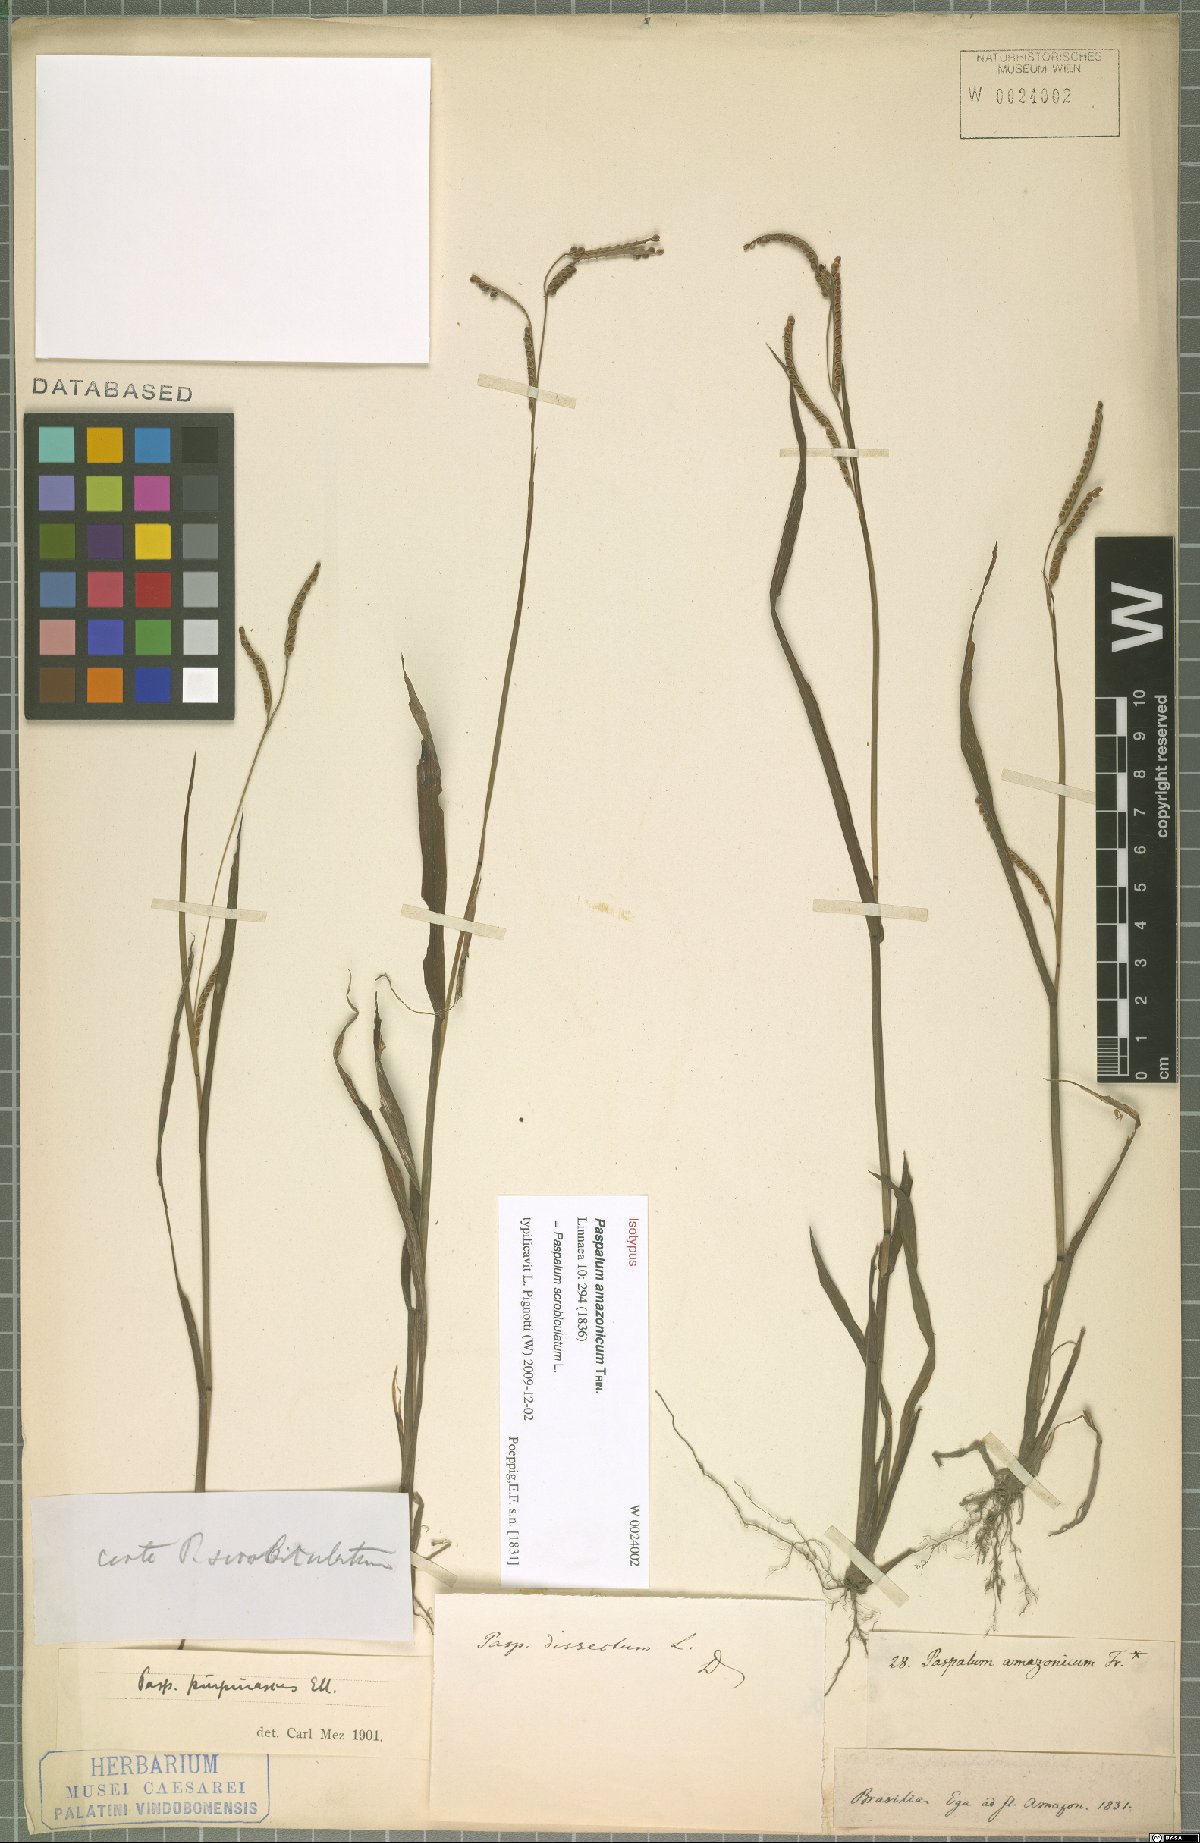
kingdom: Plantae
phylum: Tracheophyta
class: Liliopsida
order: Poales
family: Poaceae
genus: Paspalum
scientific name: Paspalum scrobiculatum
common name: Kodo millet
